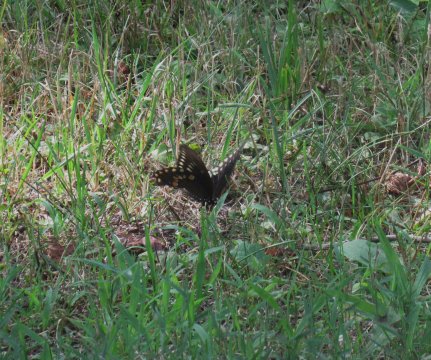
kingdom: Animalia
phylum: Arthropoda
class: Insecta
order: Lepidoptera
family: Papilionidae
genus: Pterourus
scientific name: Pterourus troilus
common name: Spicebush Swallowtail
